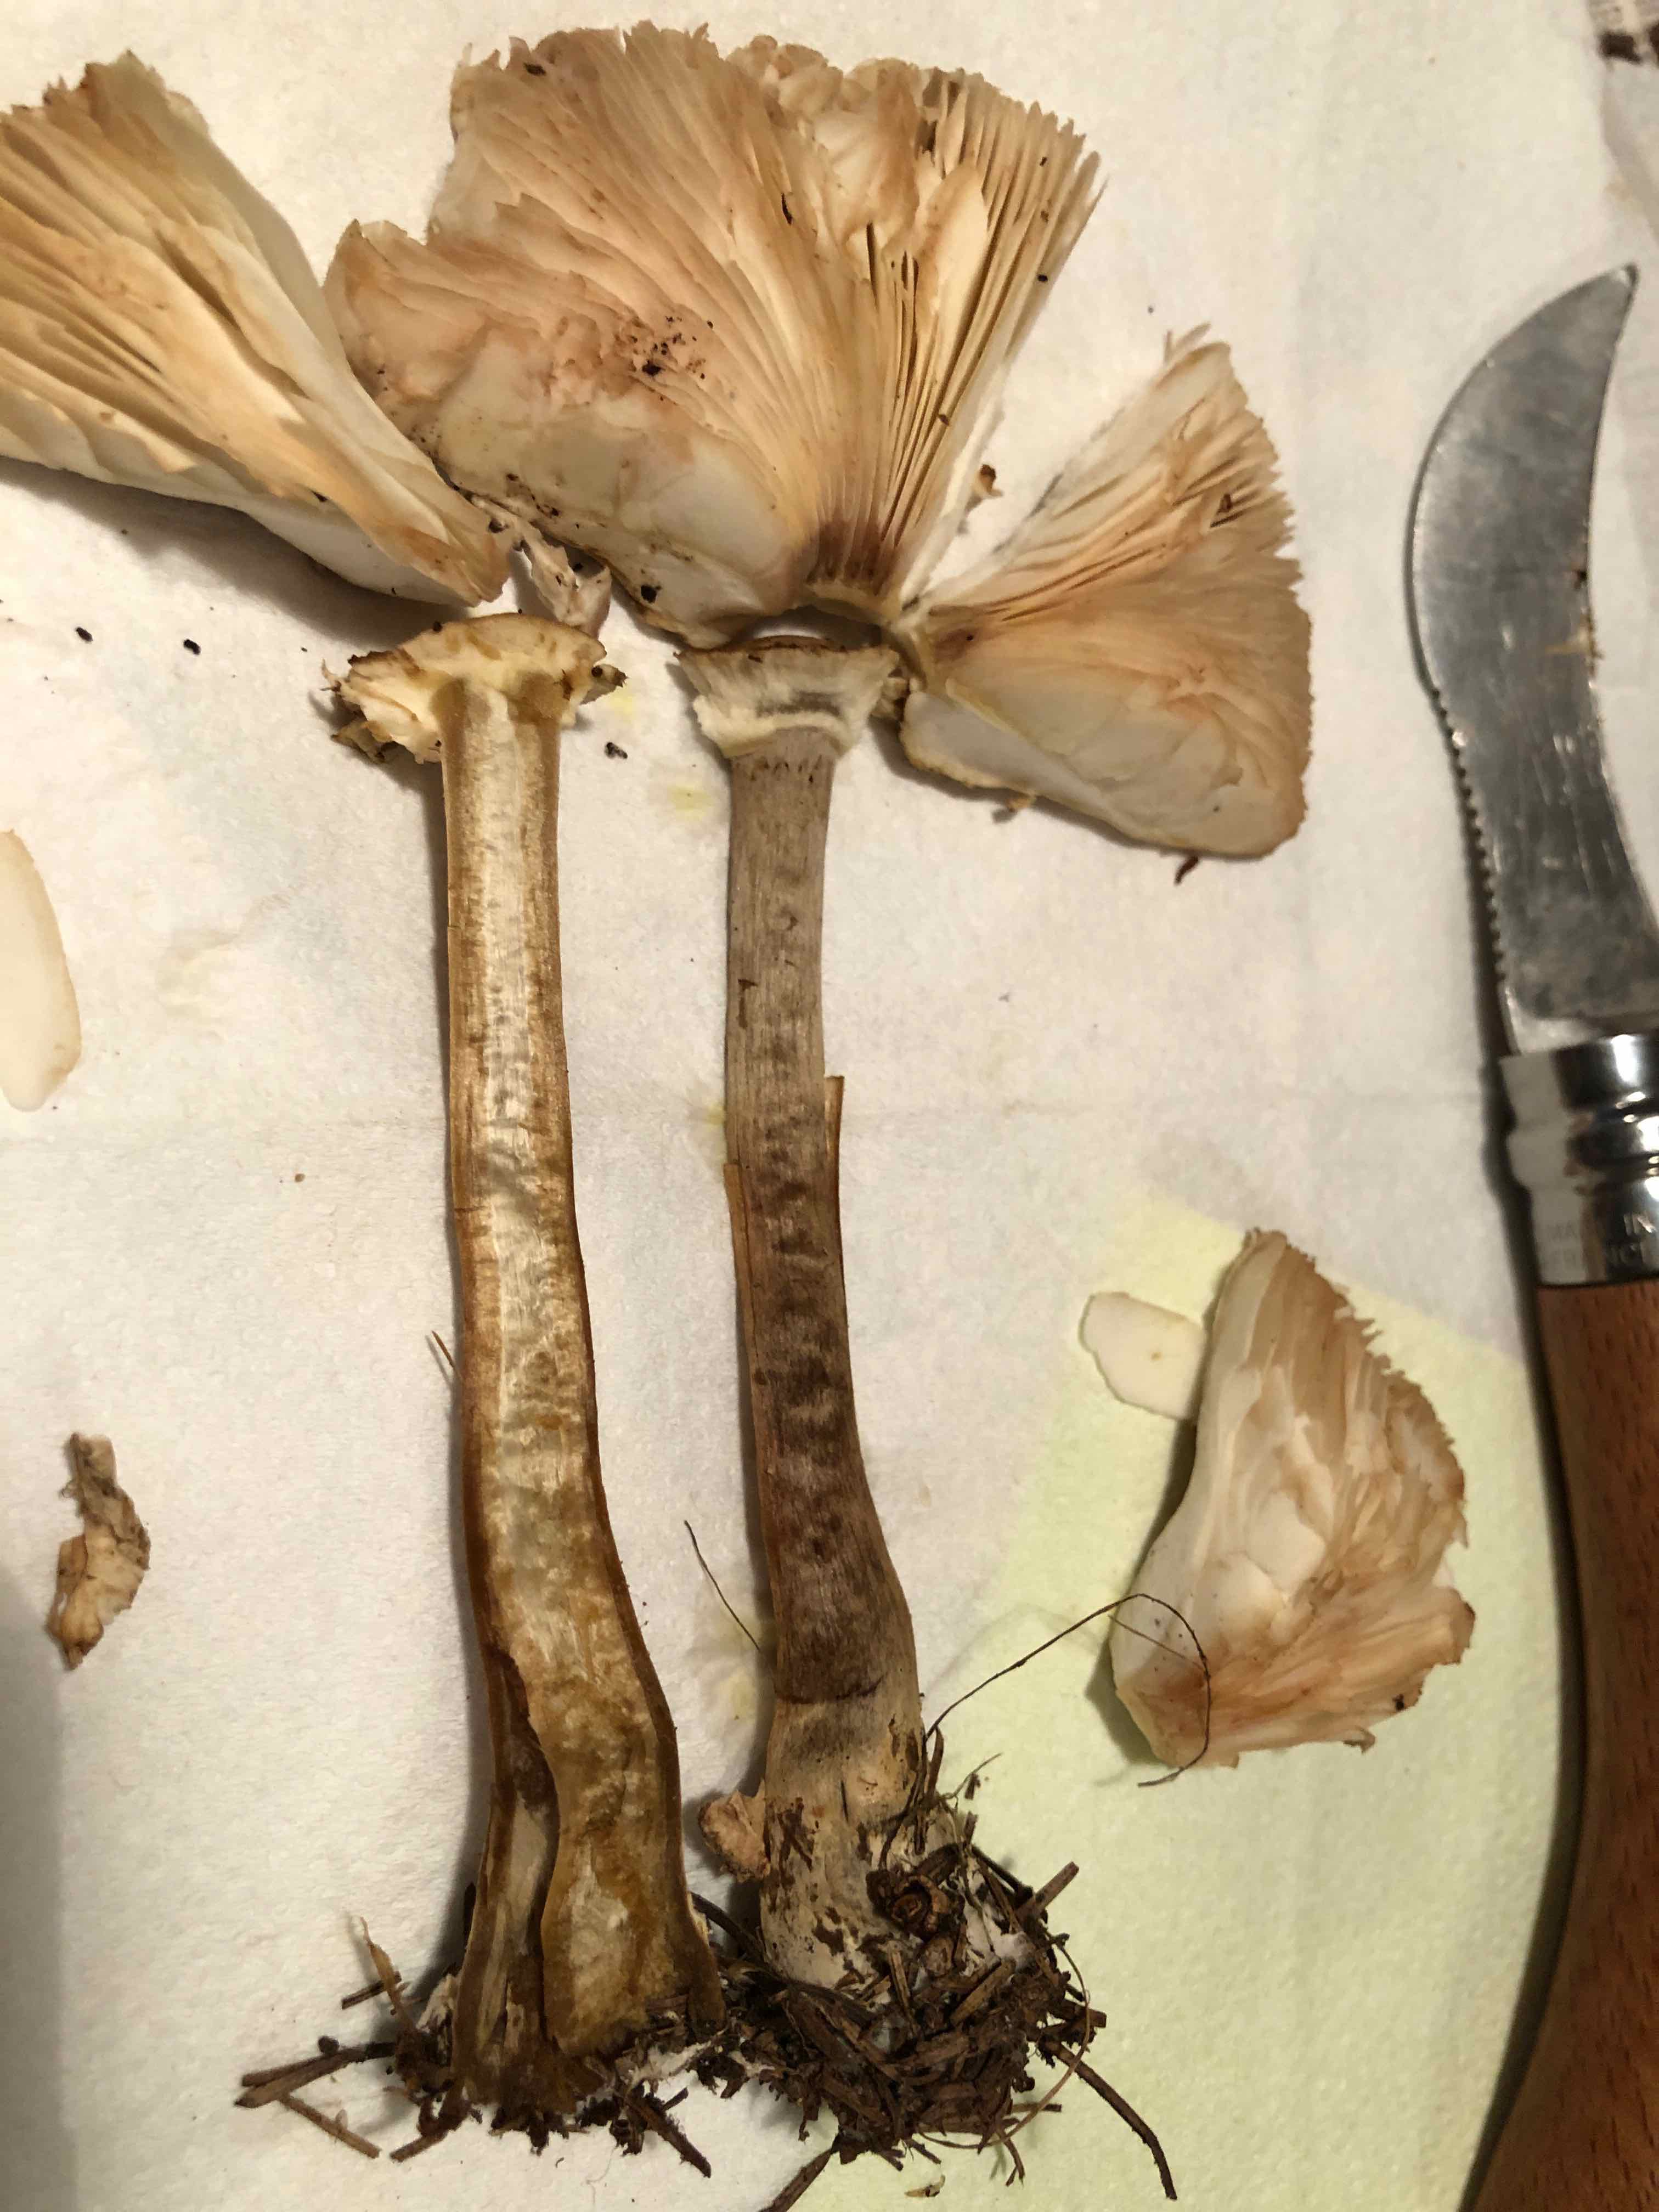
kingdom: Fungi
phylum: Basidiomycota
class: Agaricomycetes
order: Agaricales
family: Agaricaceae
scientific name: Agaricaceae
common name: champignonfamilien
